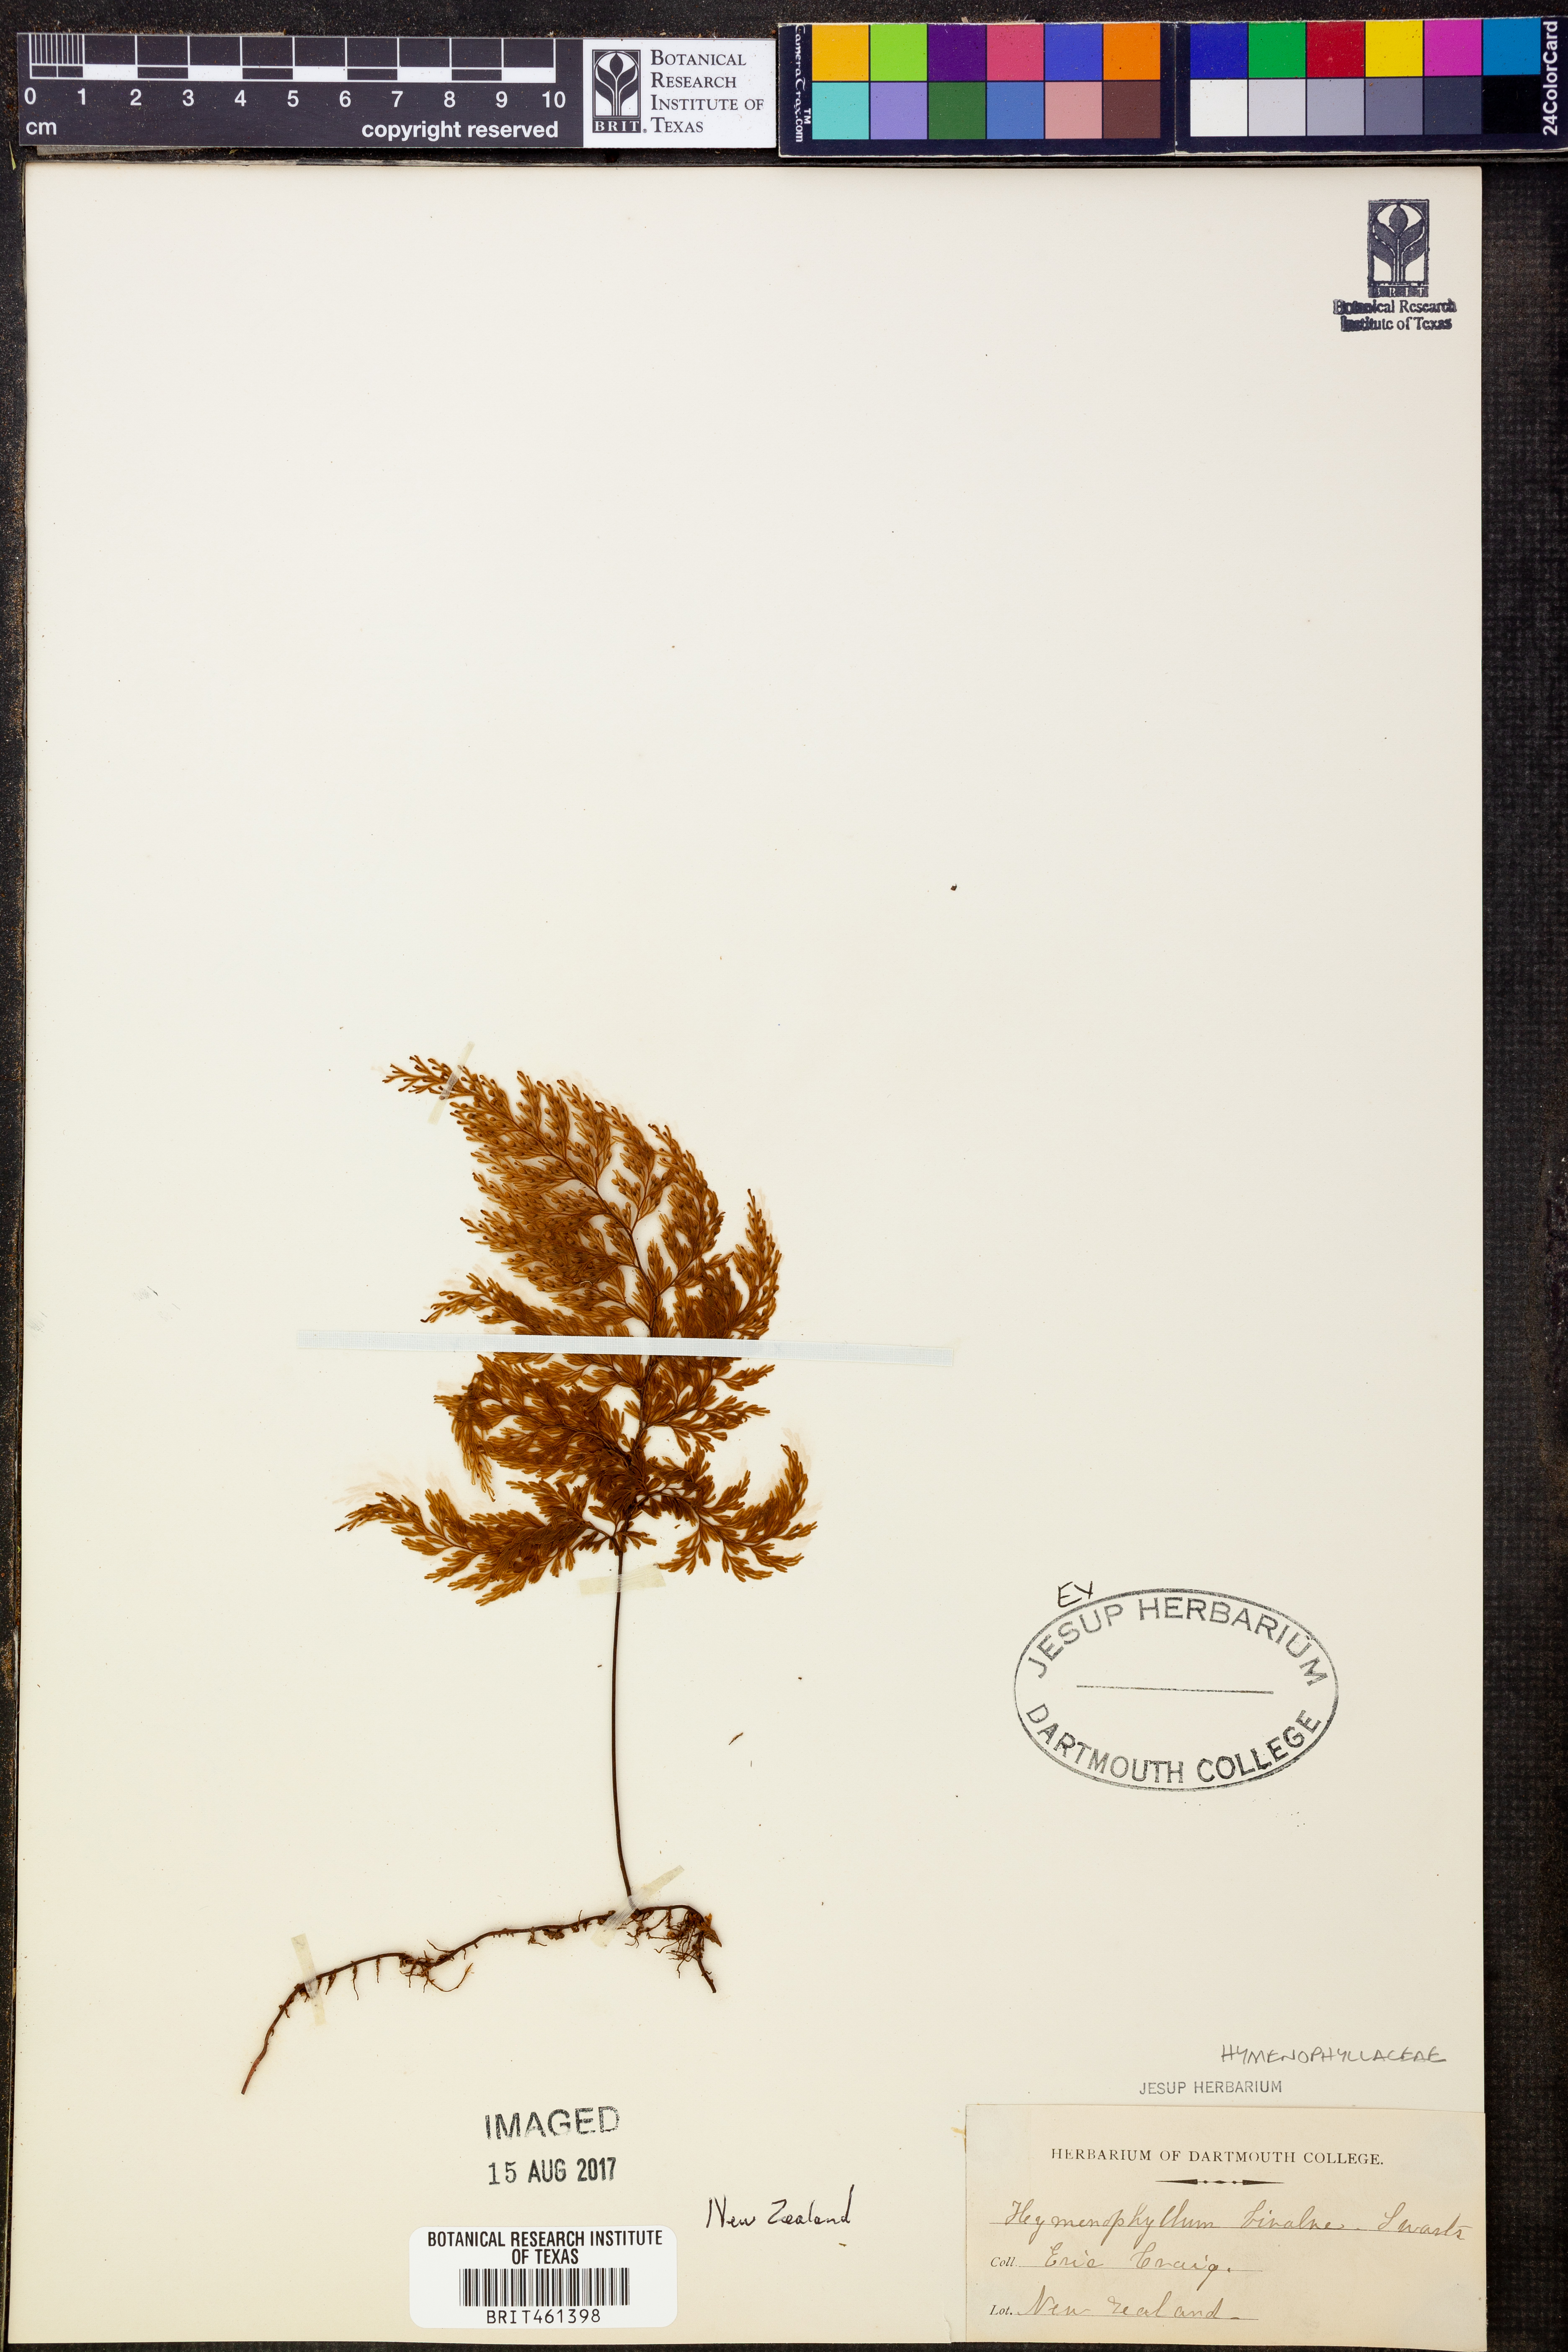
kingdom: Plantae
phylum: Tracheophyta
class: Polypodiopsida
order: Hymenophyllales
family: Hymenophyllaceae
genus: Hymenophyllum
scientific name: Hymenophyllum bivalve
